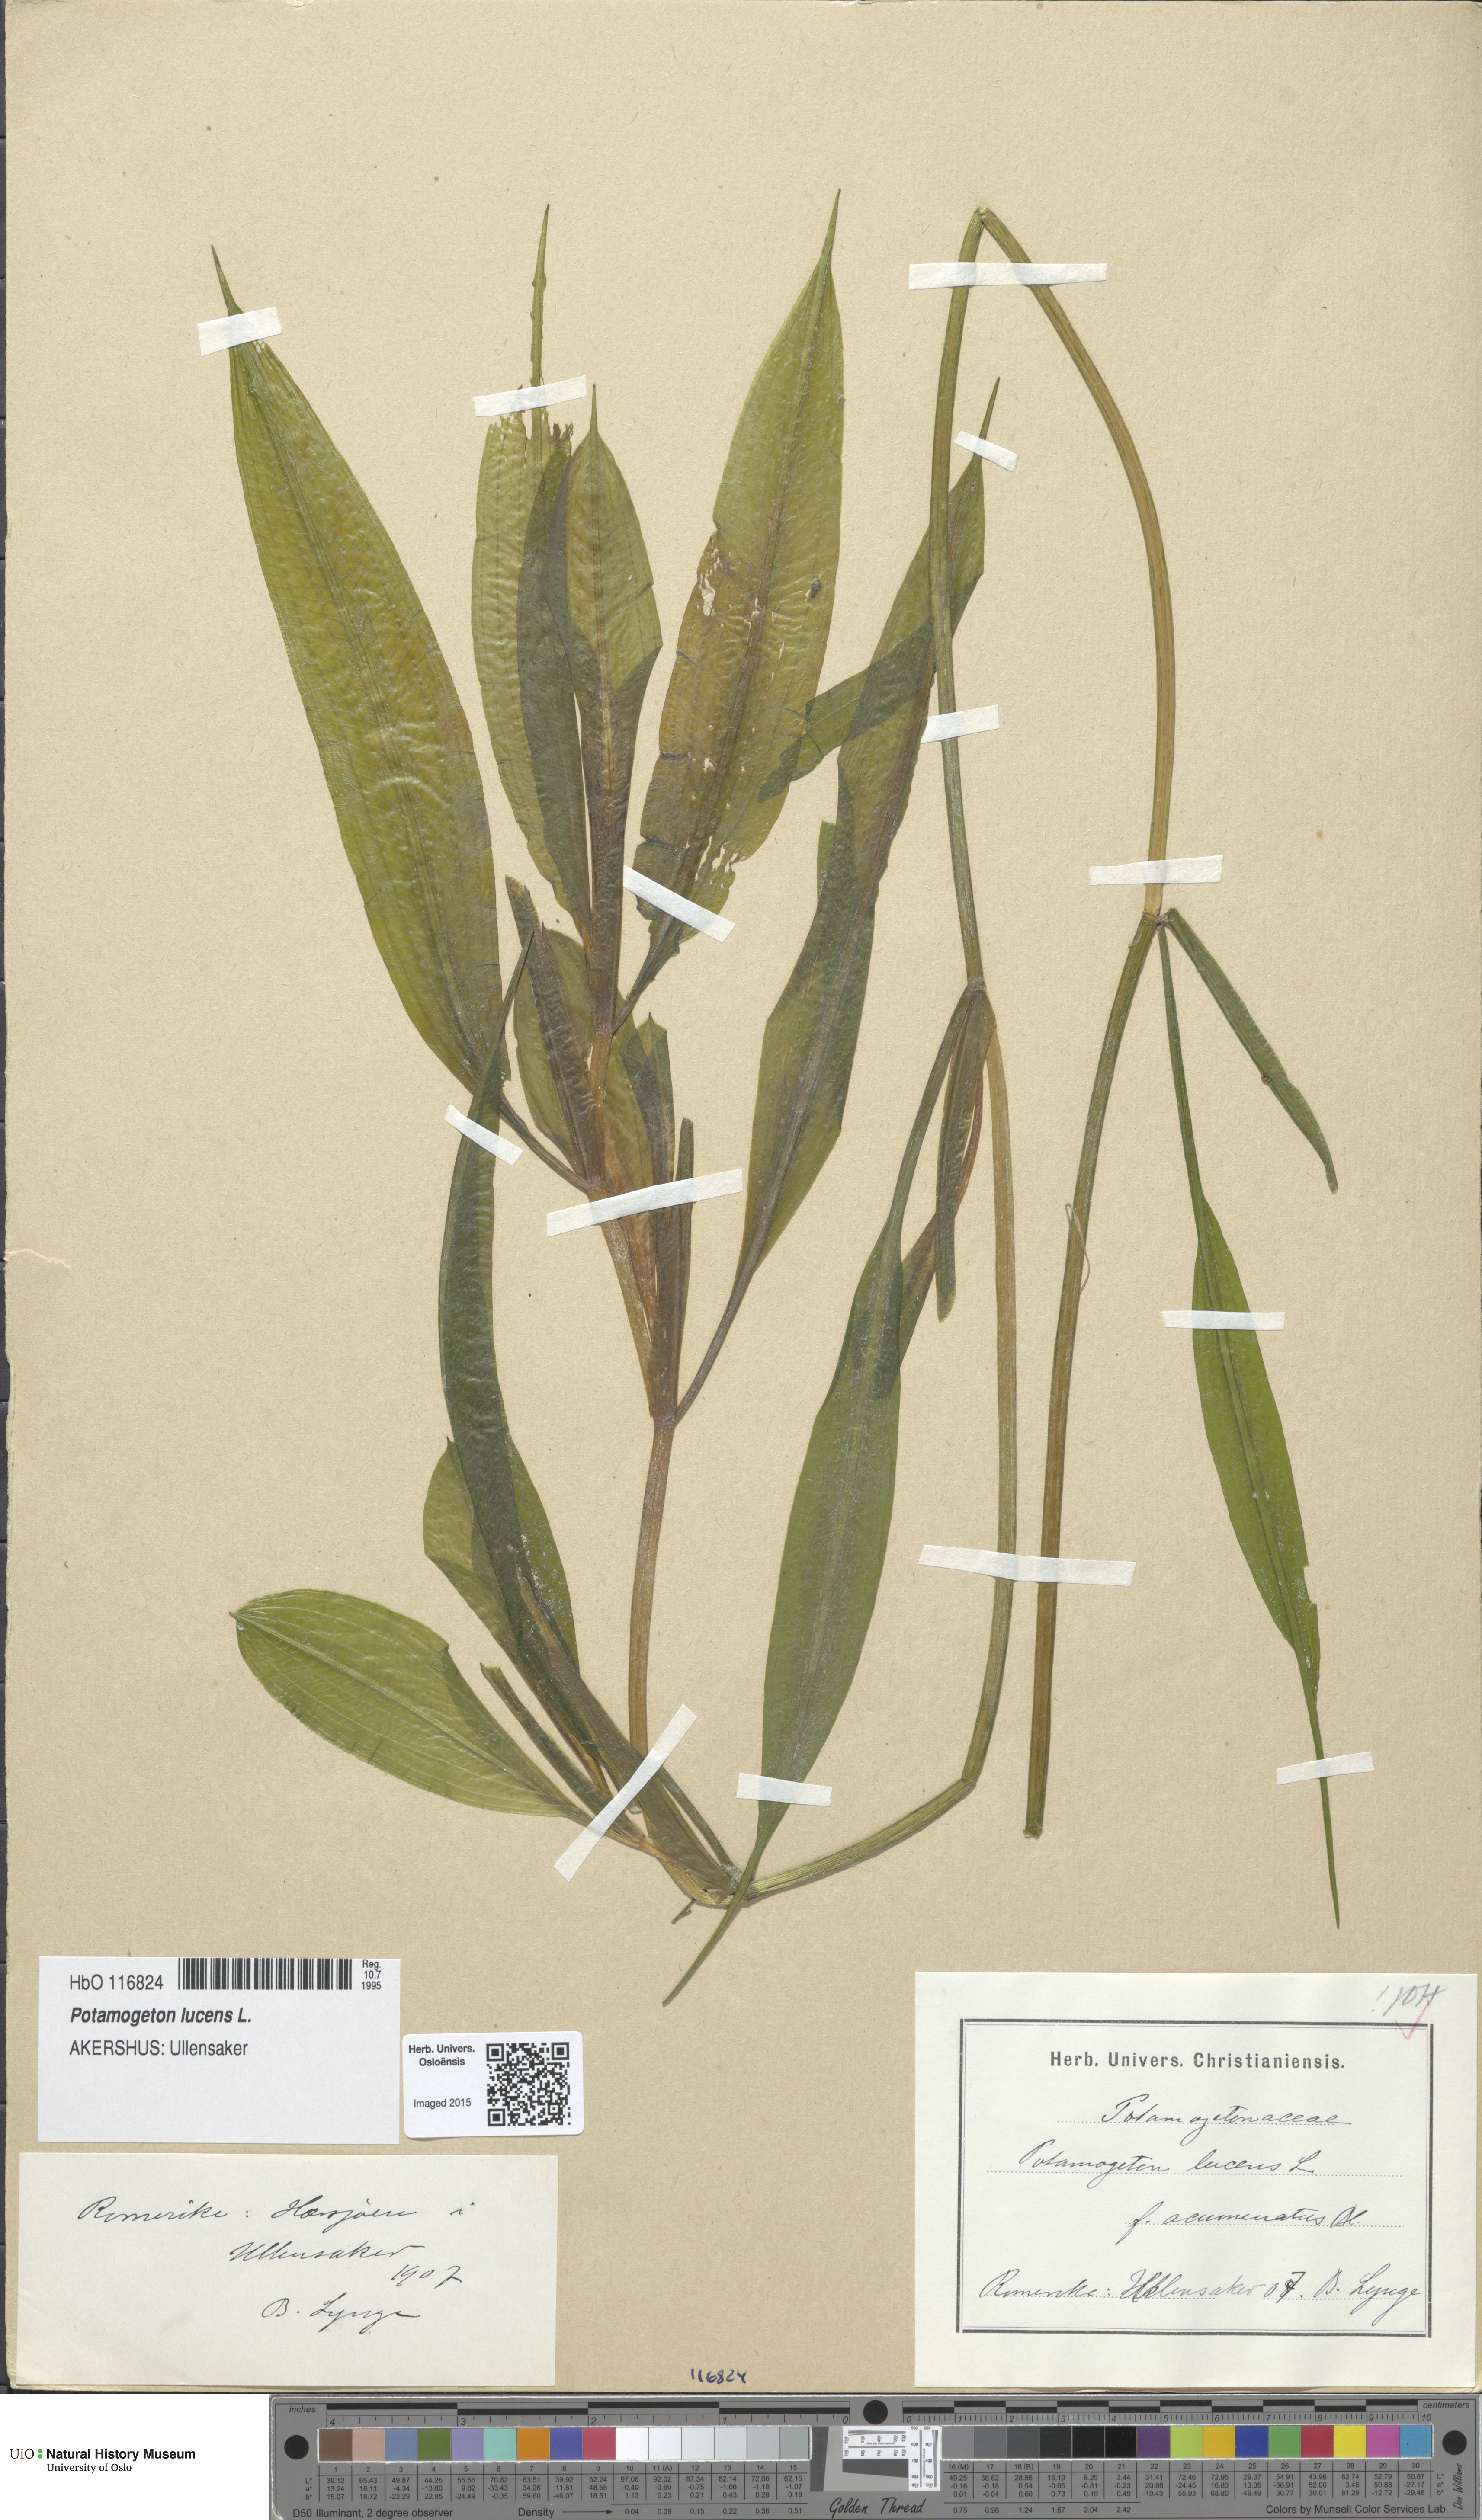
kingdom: Plantae
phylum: Tracheophyta
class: Liliopsida
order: Alismatales
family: Potamogetonaceae
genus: Potamogeton
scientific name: Potamogeton lucens
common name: Shining pondweed
